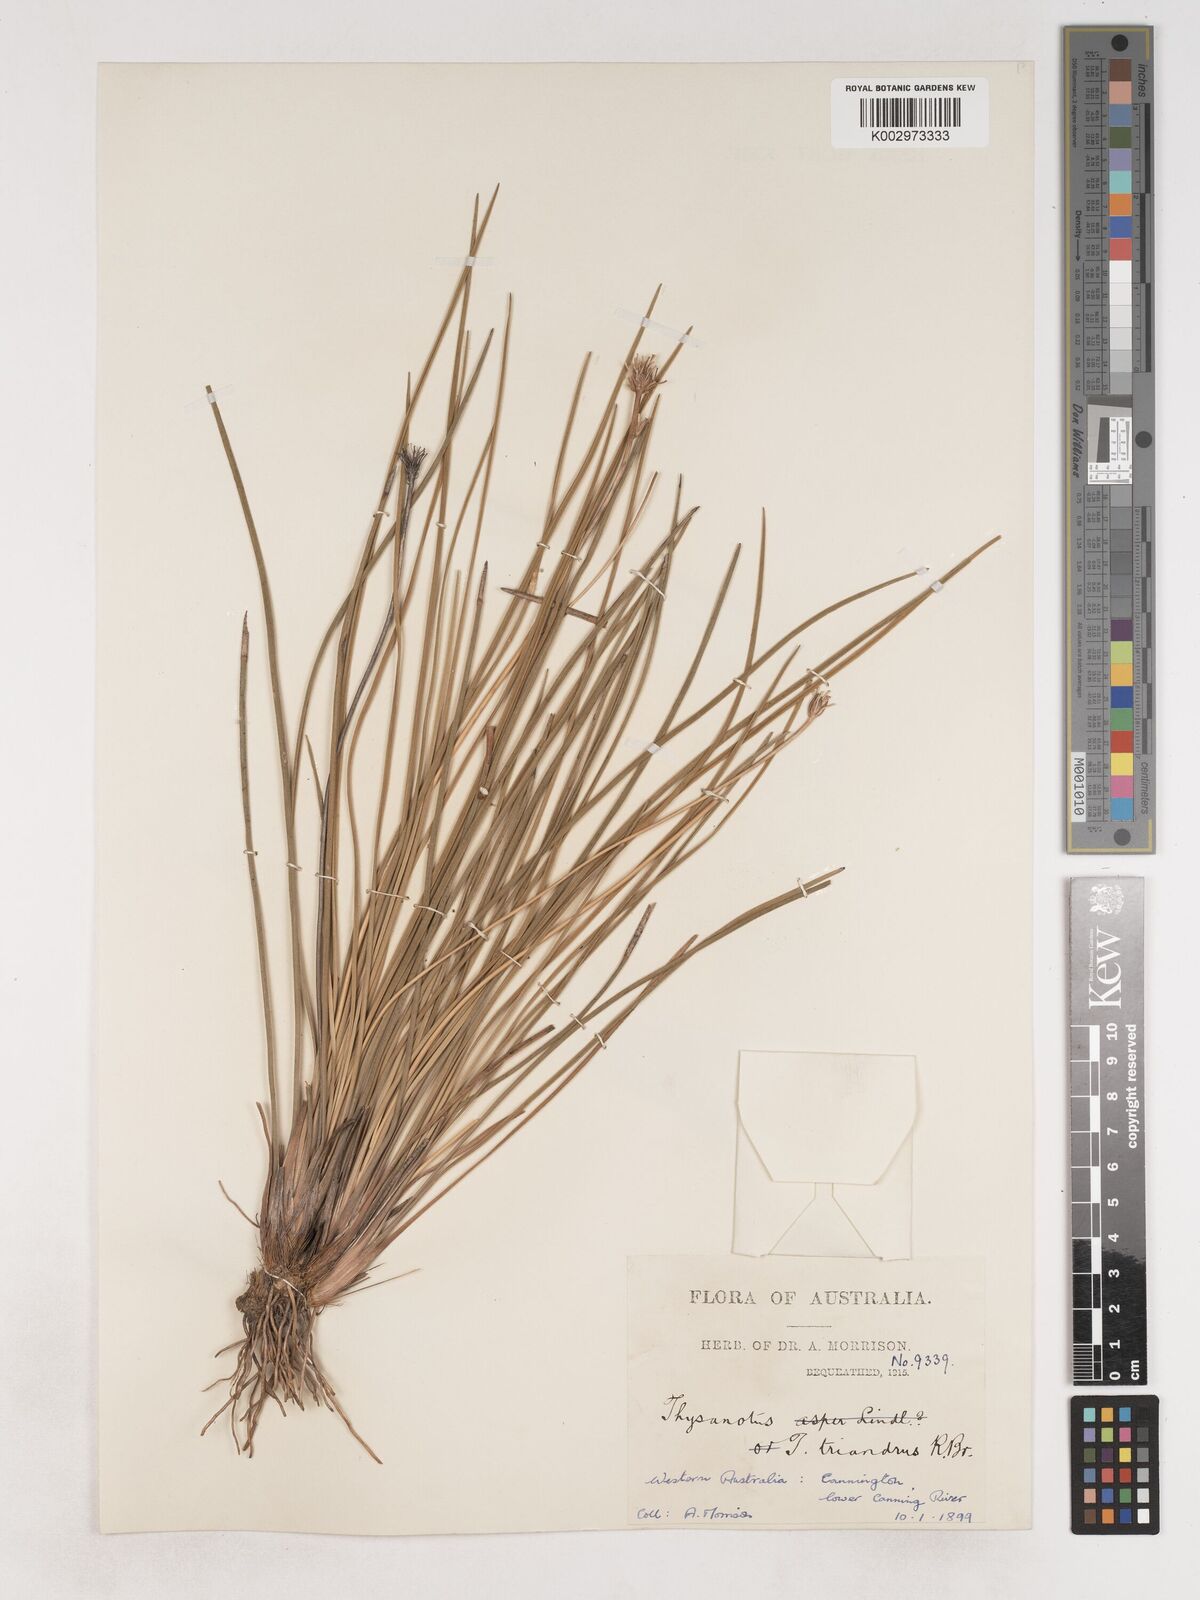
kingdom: Plantae
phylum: Tracheophyta
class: Liliopsida
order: Asparagales
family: Asparagaceae
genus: Thysanotus
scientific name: Thysanotus triandrus
